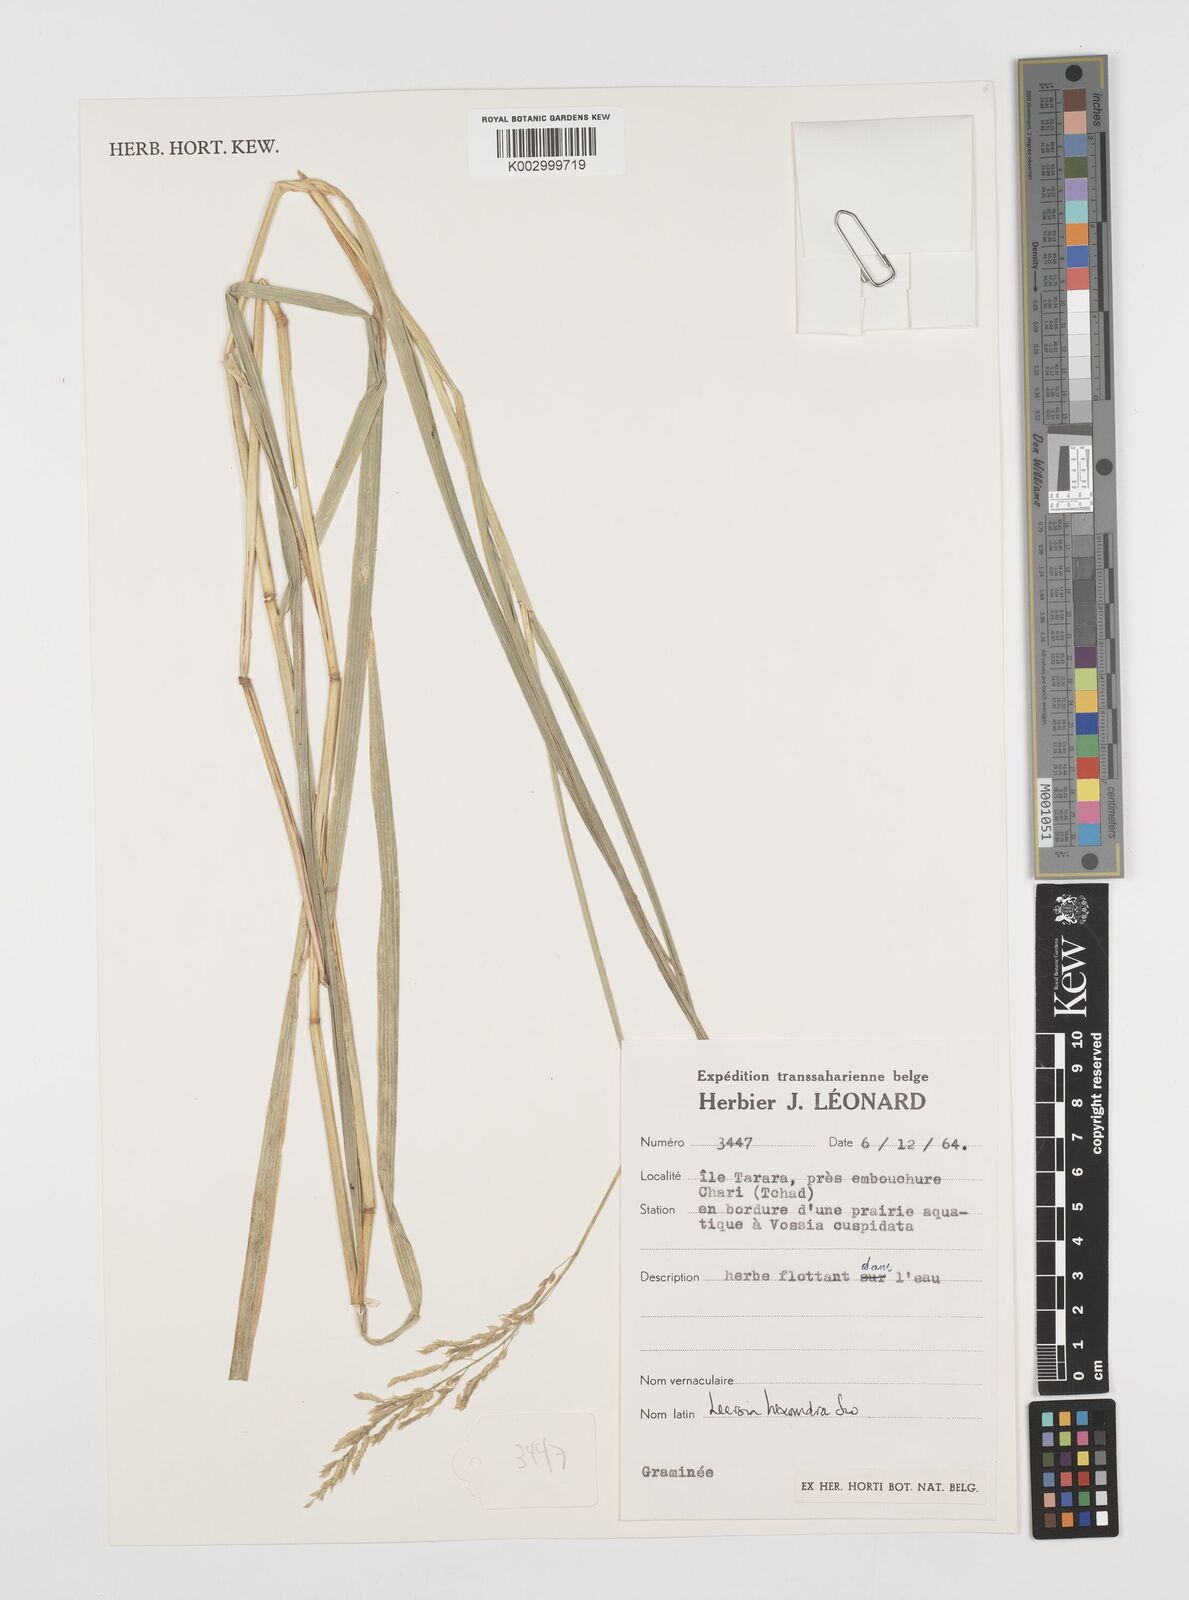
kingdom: Plantae
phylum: Tracheophyta
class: Liliopsida
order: Poales
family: Poaceae
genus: Leersia
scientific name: Leersia hexandra
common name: Southern cut grass
